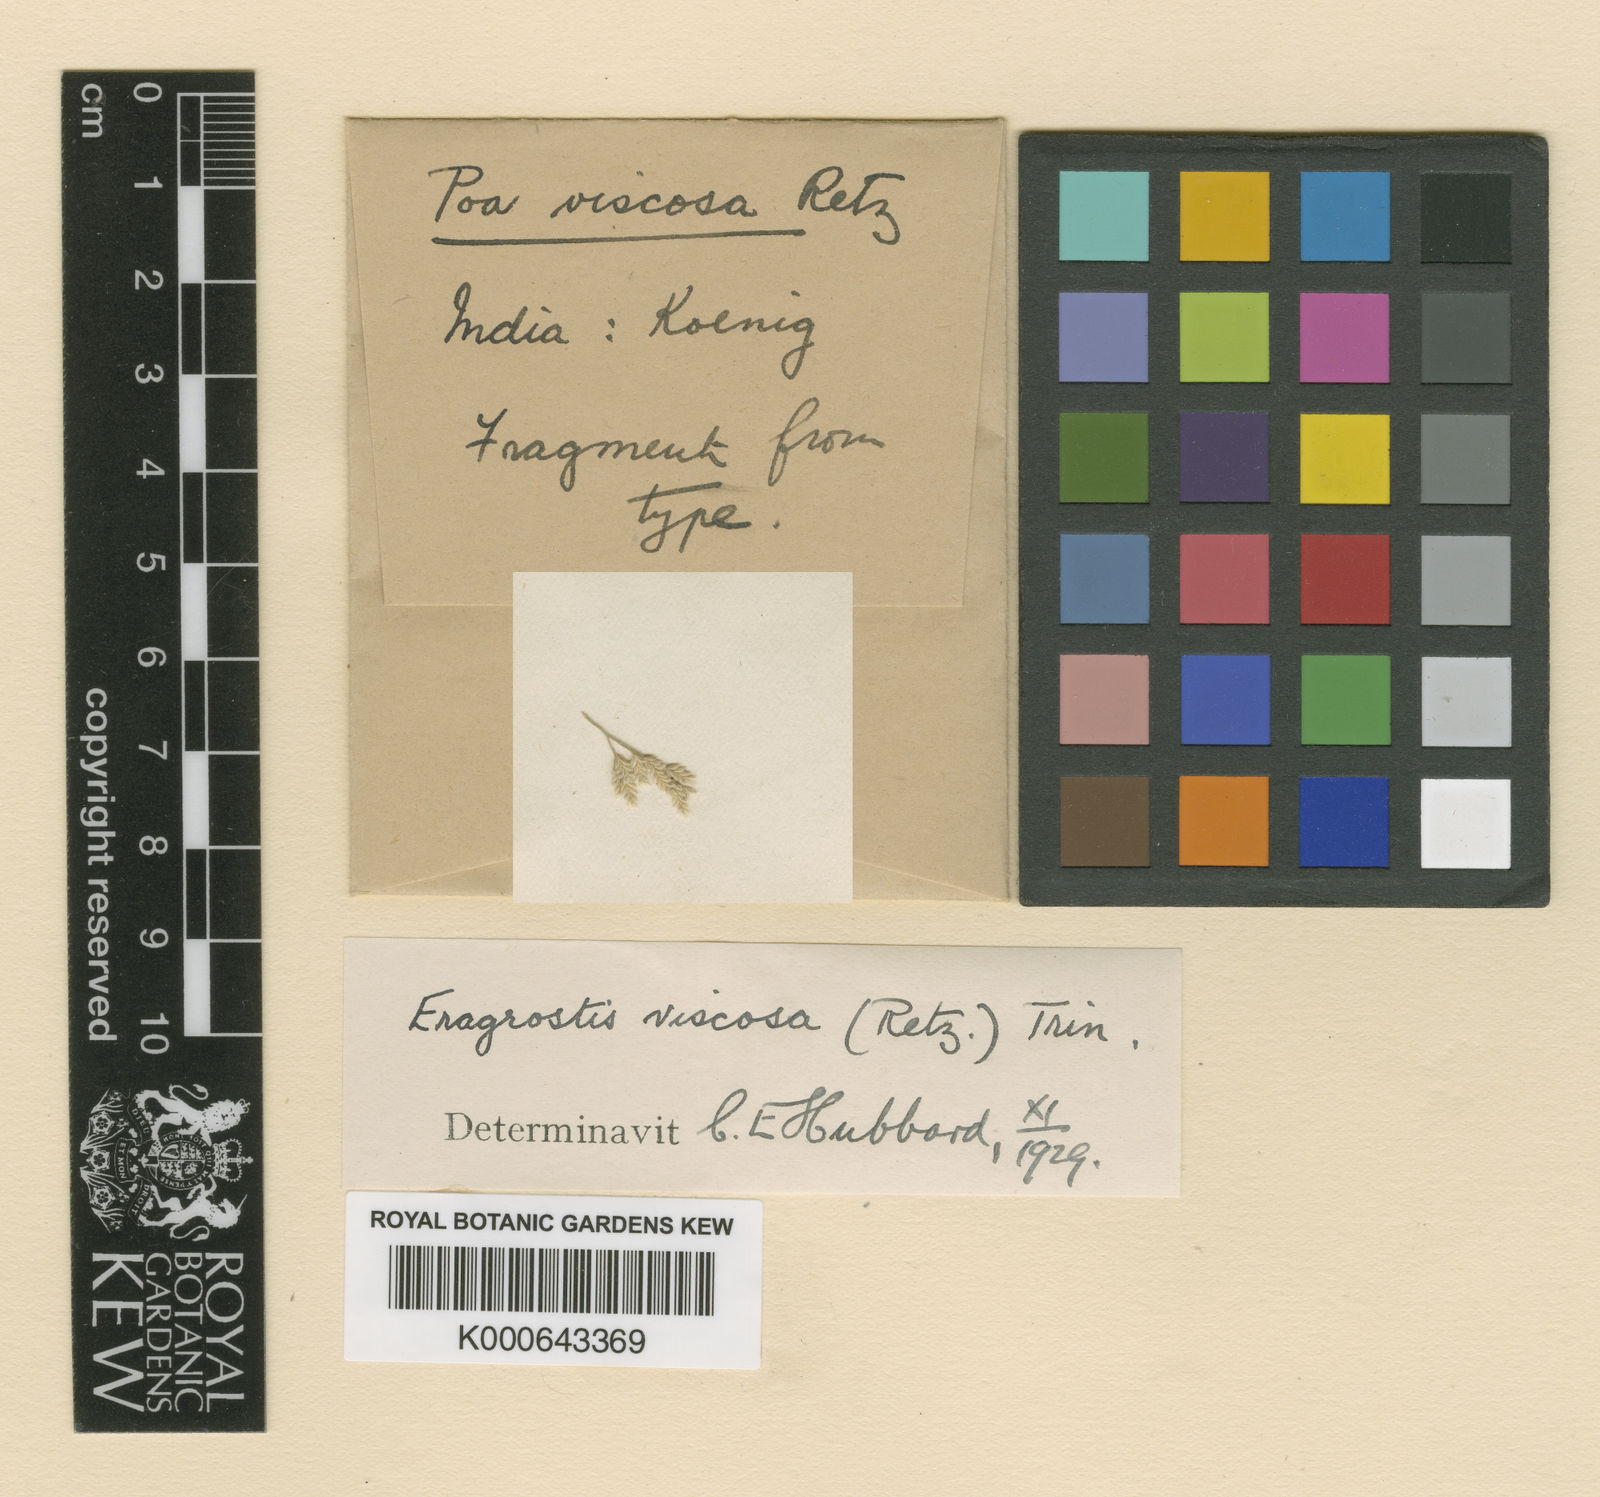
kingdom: Plantae
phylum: Tracheophyta
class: Liliopsida
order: Poales
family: Poaceae
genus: Eragrostis
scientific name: Eragrostis viscosa
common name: Sticky love grass
